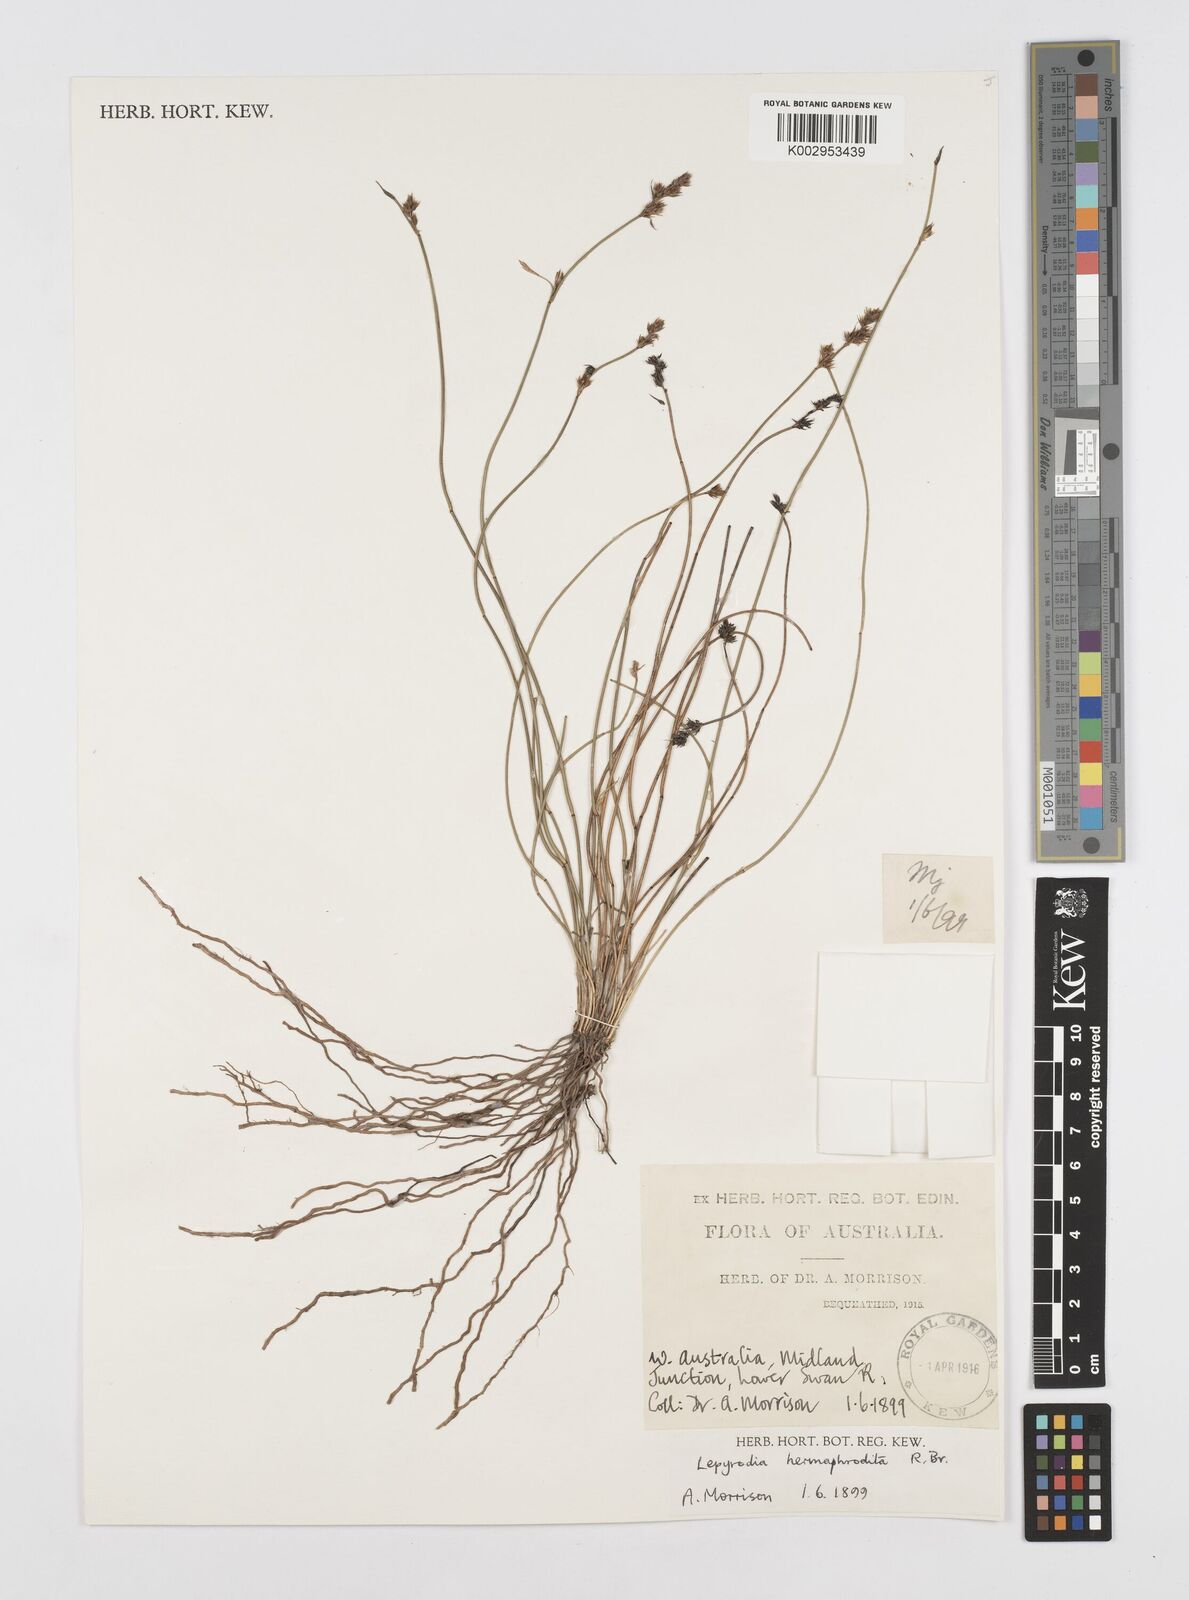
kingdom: Plantae
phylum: Tracheophyta
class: Liliopsida
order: Poales
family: Restionaceae
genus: Lepyrodia
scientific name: Lepyrodia hermaphrodita
